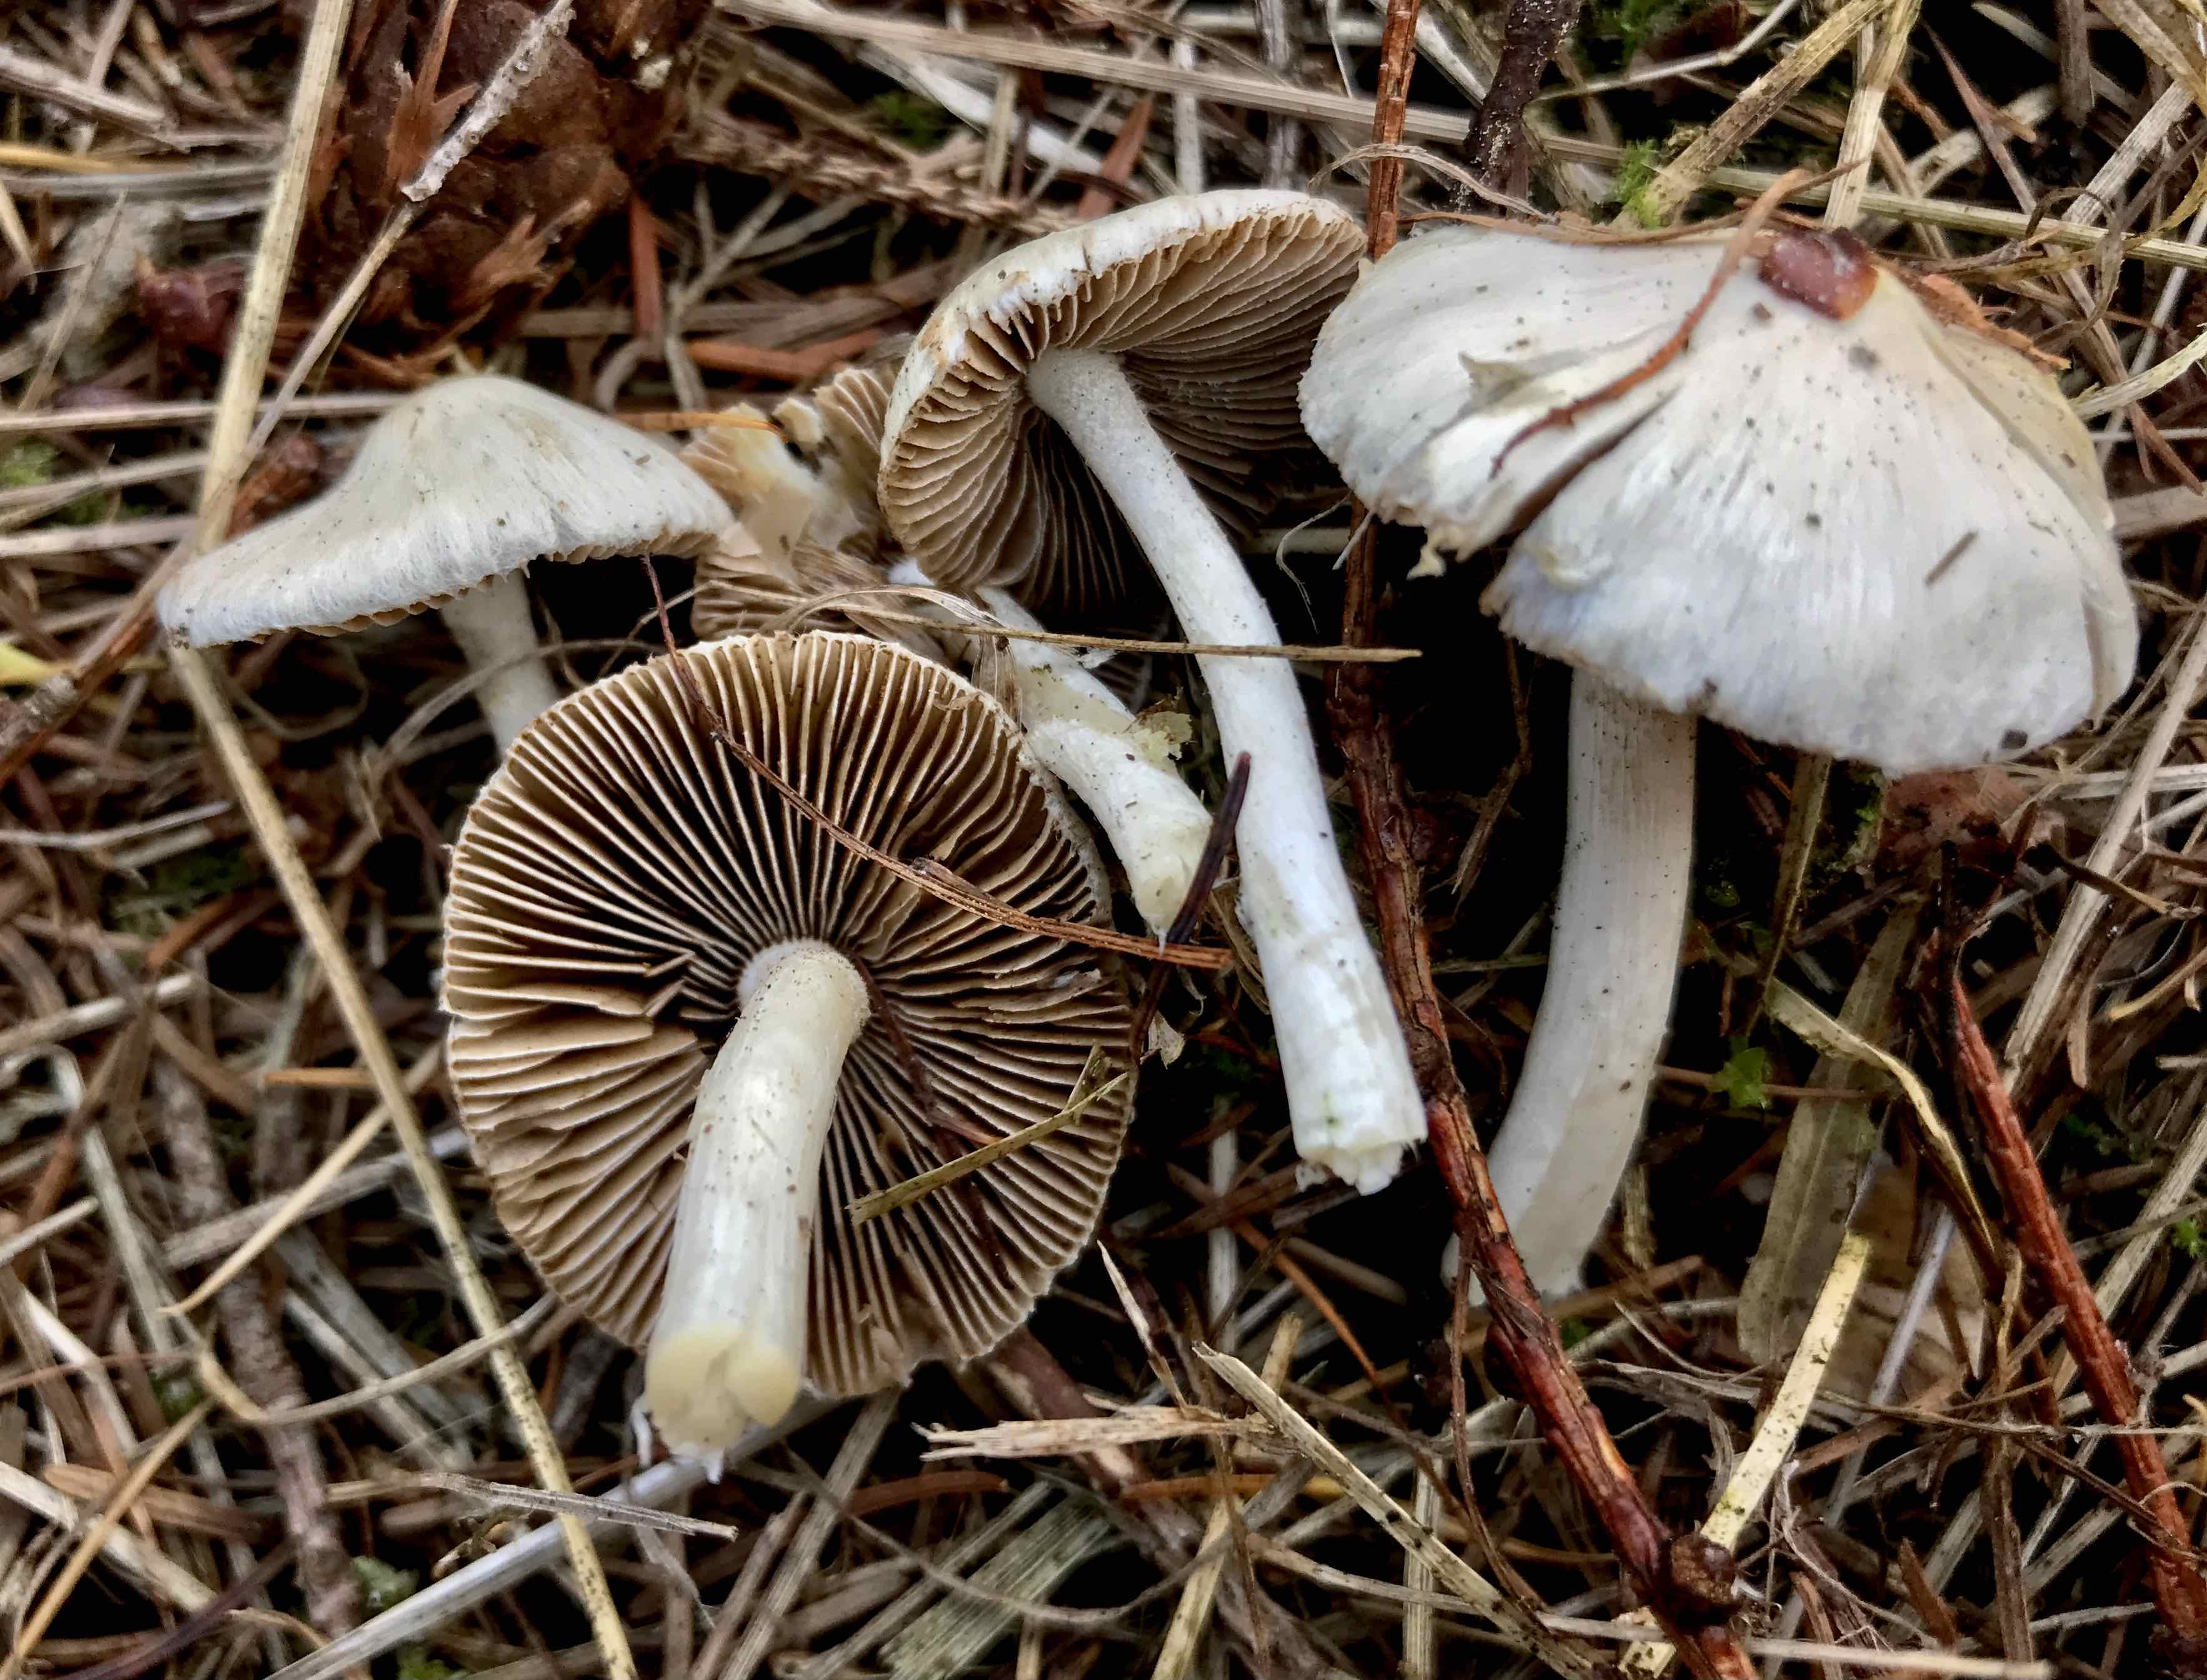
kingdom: Fungi
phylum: Basidiomycota
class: Agaricomycetes
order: Agaricales
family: Inocybaceae
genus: Inocybe
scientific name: Inocybe
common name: almindelig trævlhat
